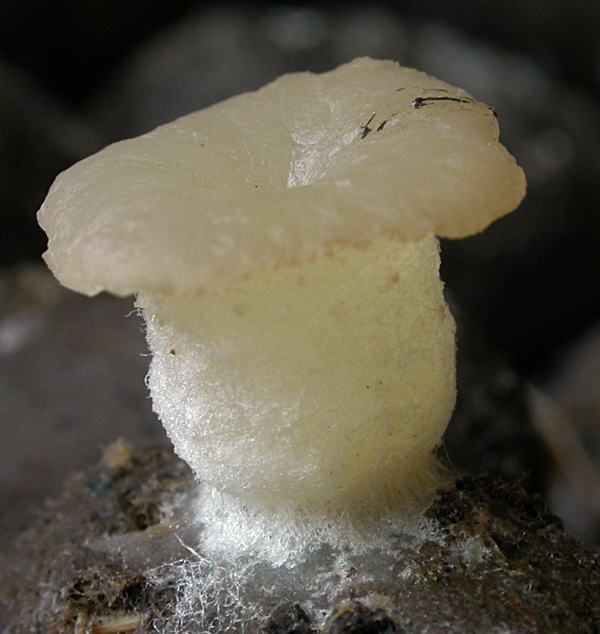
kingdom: Fungi
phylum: Ascomycota
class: Pezizomycetes
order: Pezizales
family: Pezizaceae
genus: Peziza
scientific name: Peziza fimeti
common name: møg-bægersvamp
